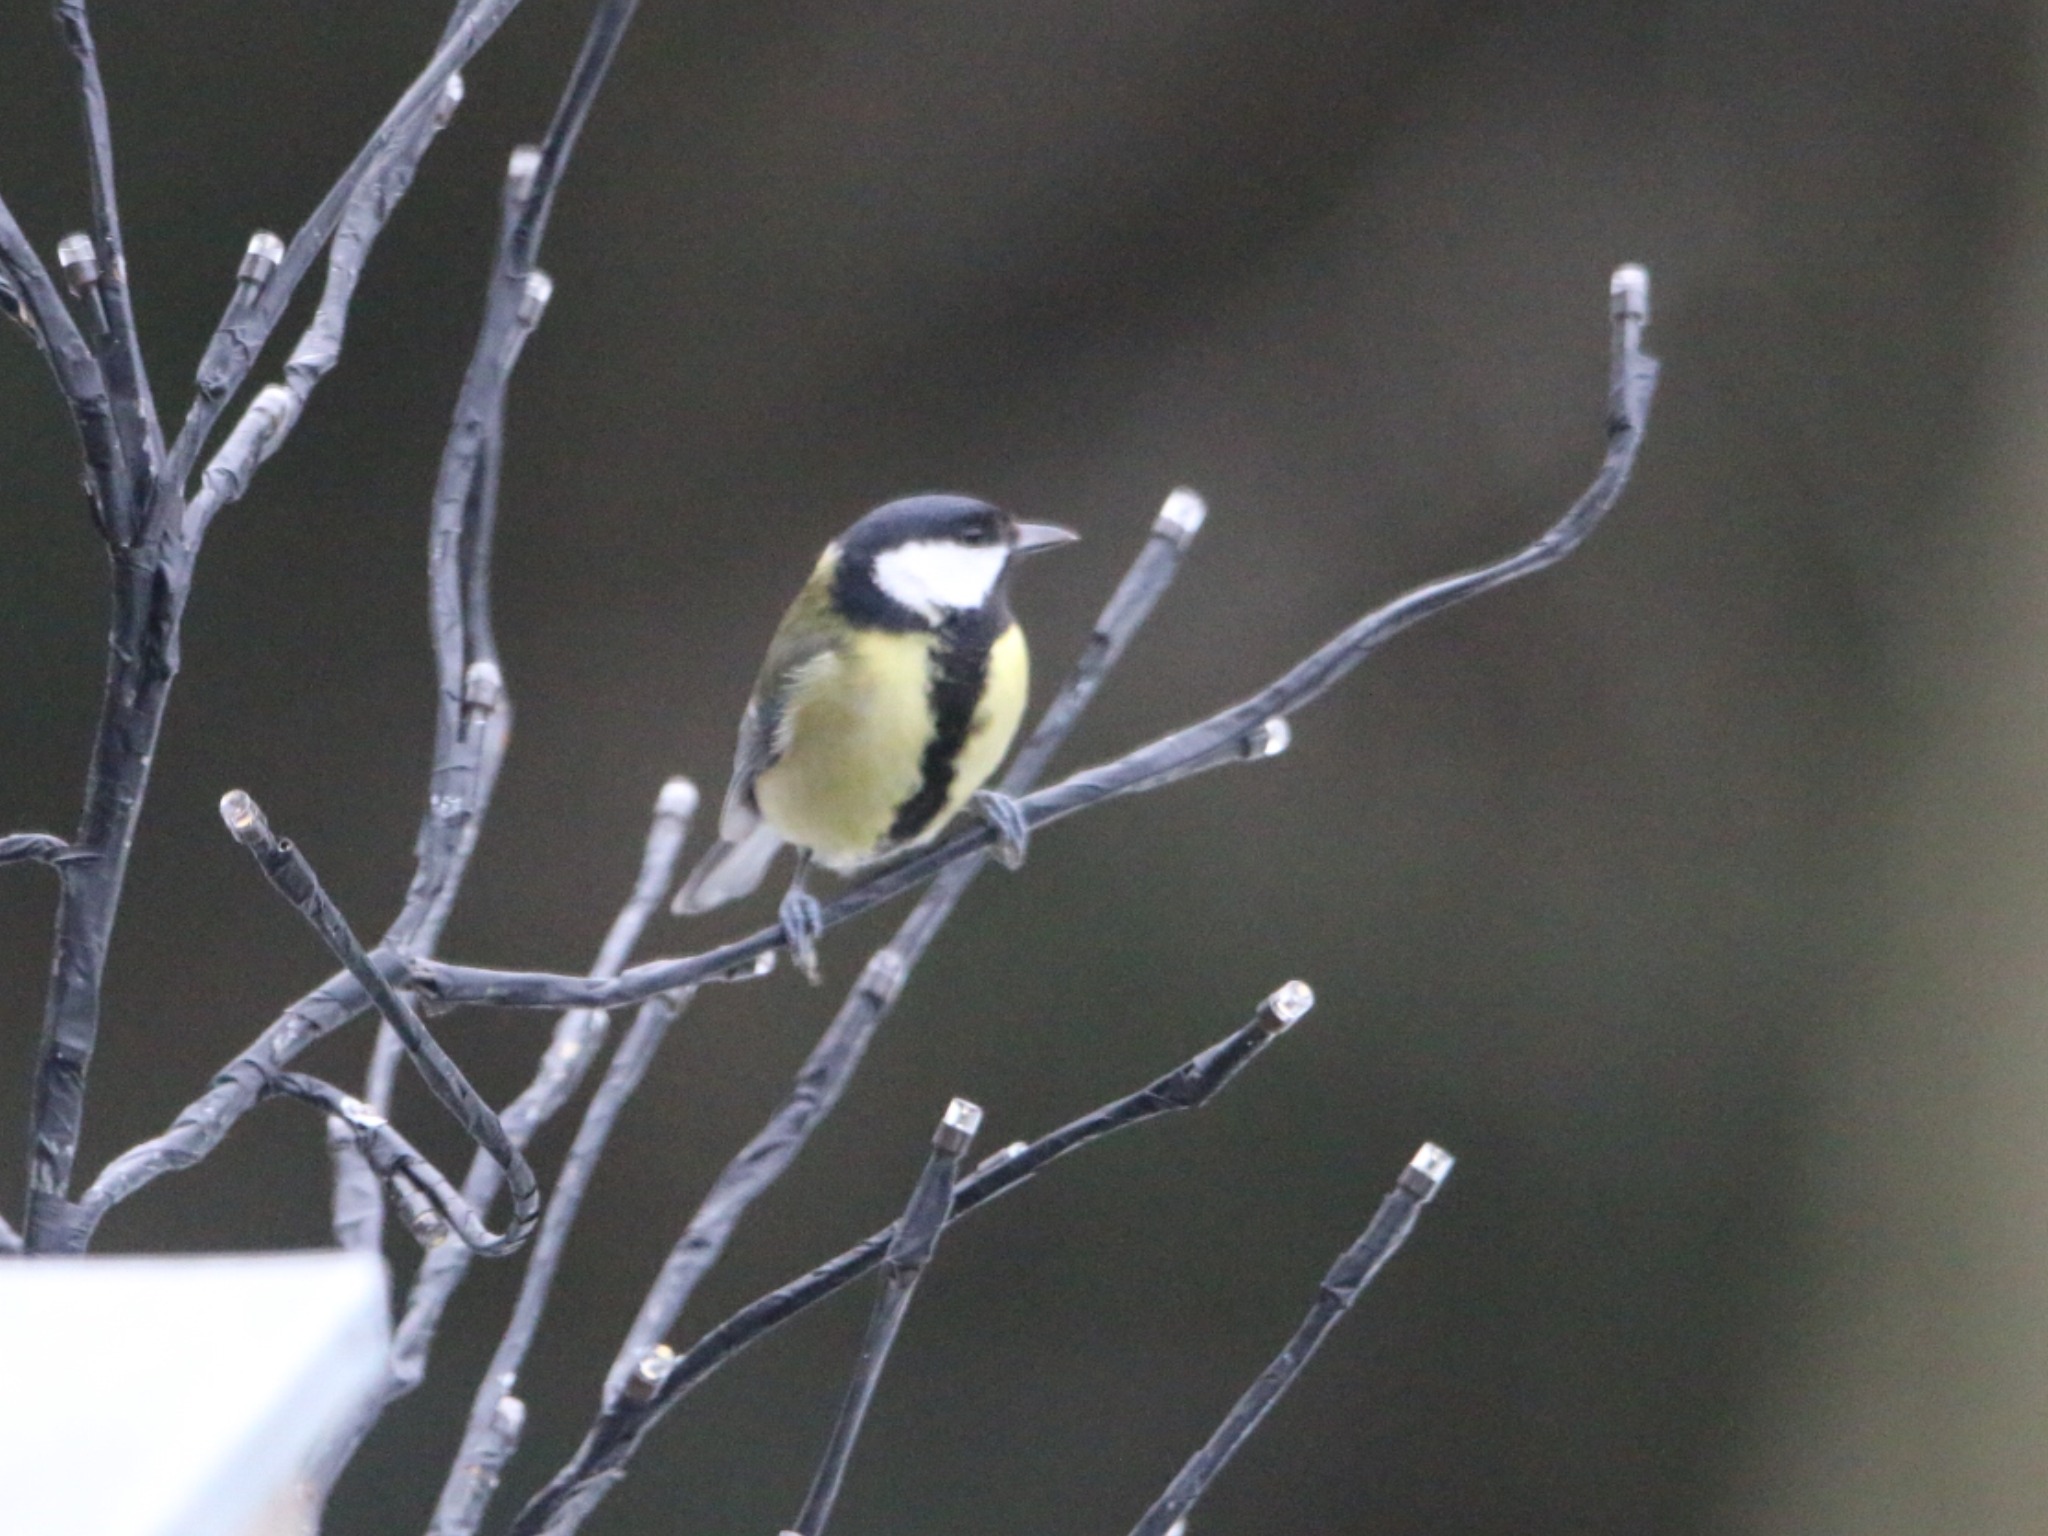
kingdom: Animalia
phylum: Chordata
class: Aves
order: Passeriformes
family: Paridae
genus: Parus
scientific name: Parus major
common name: Musvit
